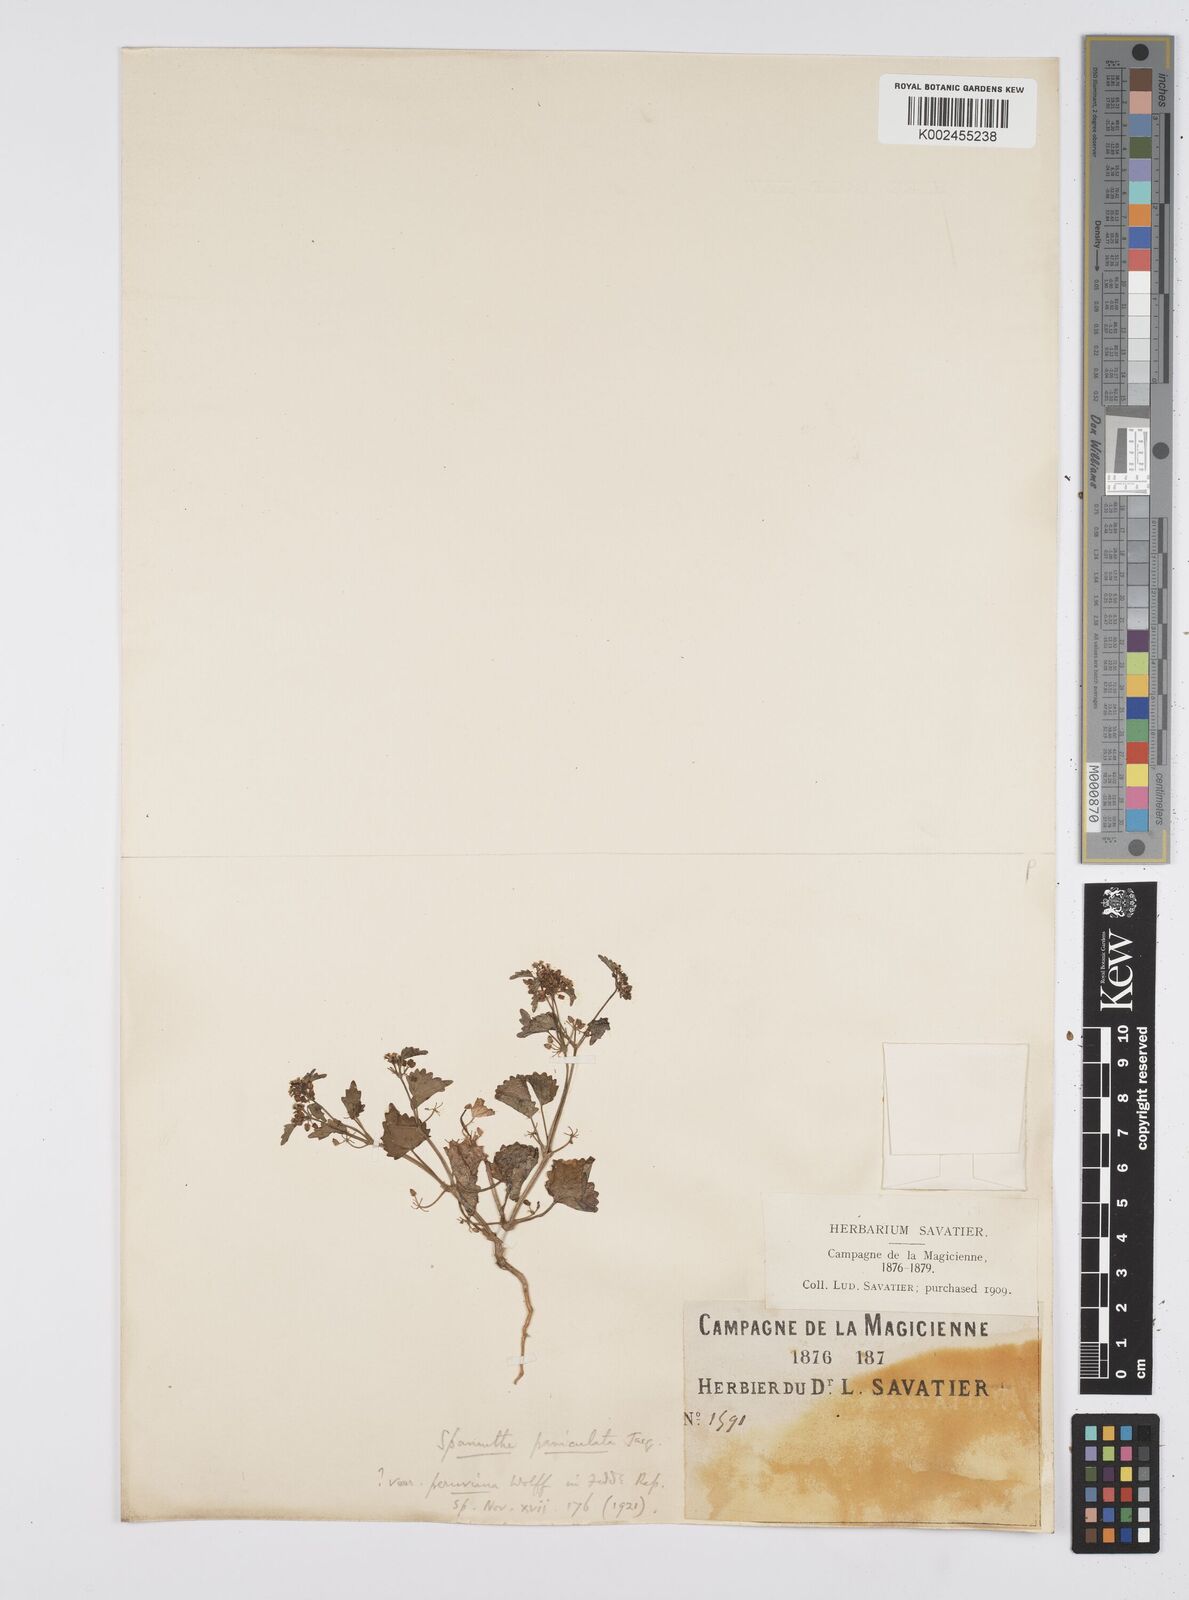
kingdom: Plantae
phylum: Tracheophyta
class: Magnoliopsida
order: Apiales
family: Apiaceae
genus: Azorella
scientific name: Azorella
